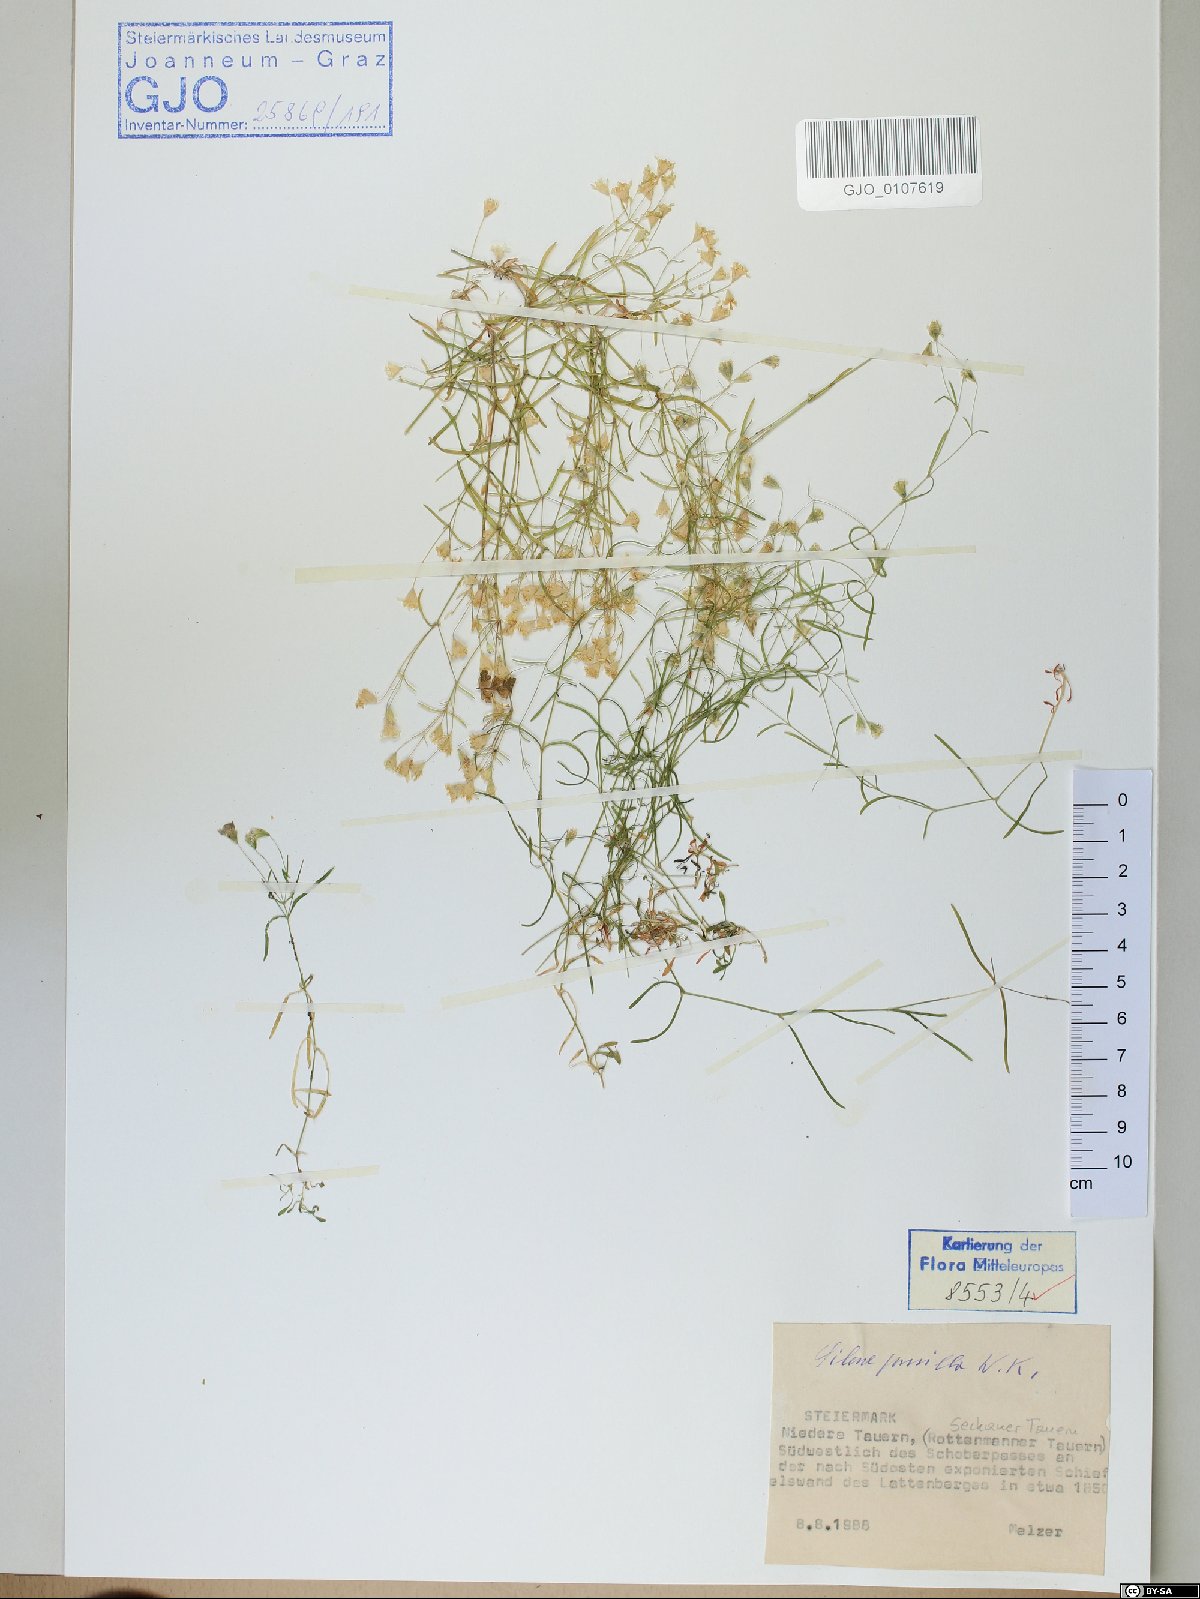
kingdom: Plantae
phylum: Tracheophyta
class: Magnoliopsida
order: Caryophyllales
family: Caryophyllaceae
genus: Heliosperma
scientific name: Heliosperma pusillum
